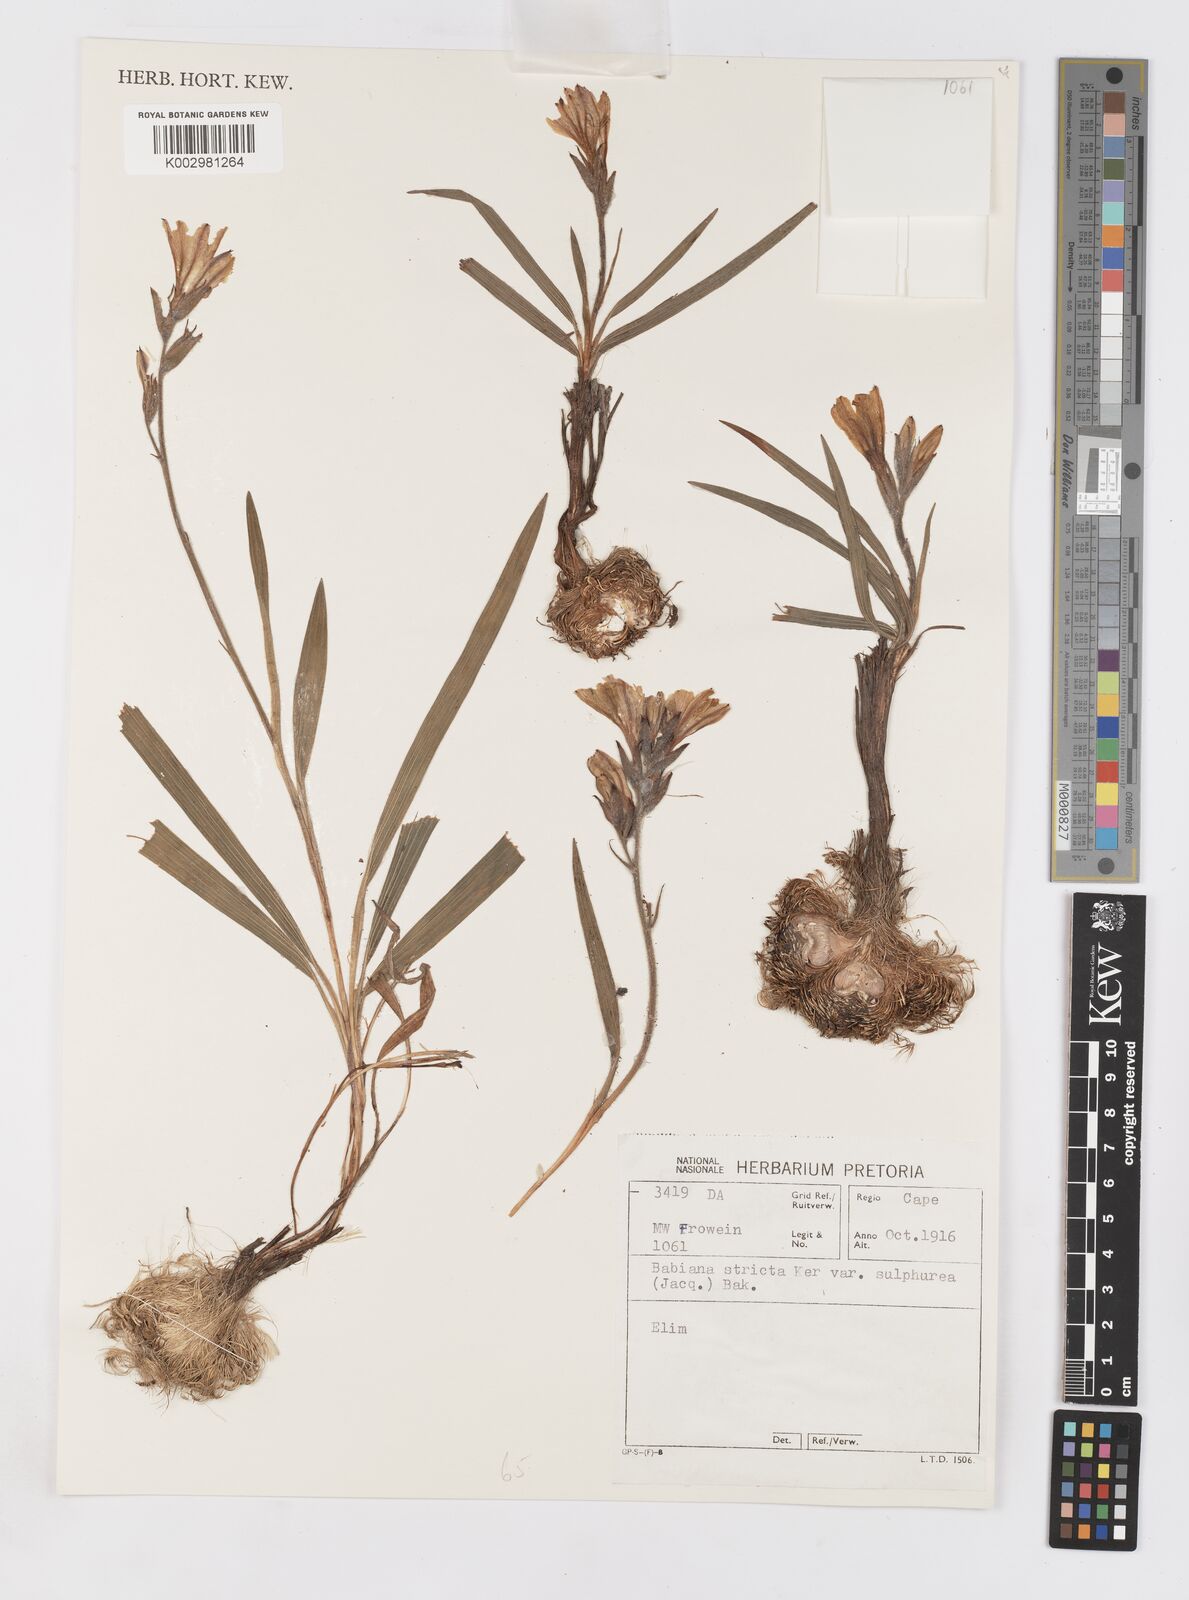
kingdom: Plantae
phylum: Tracheophyta
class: Liliopsida
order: Asparagales
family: Iridaceae
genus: Babiana
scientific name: Babiana regia
